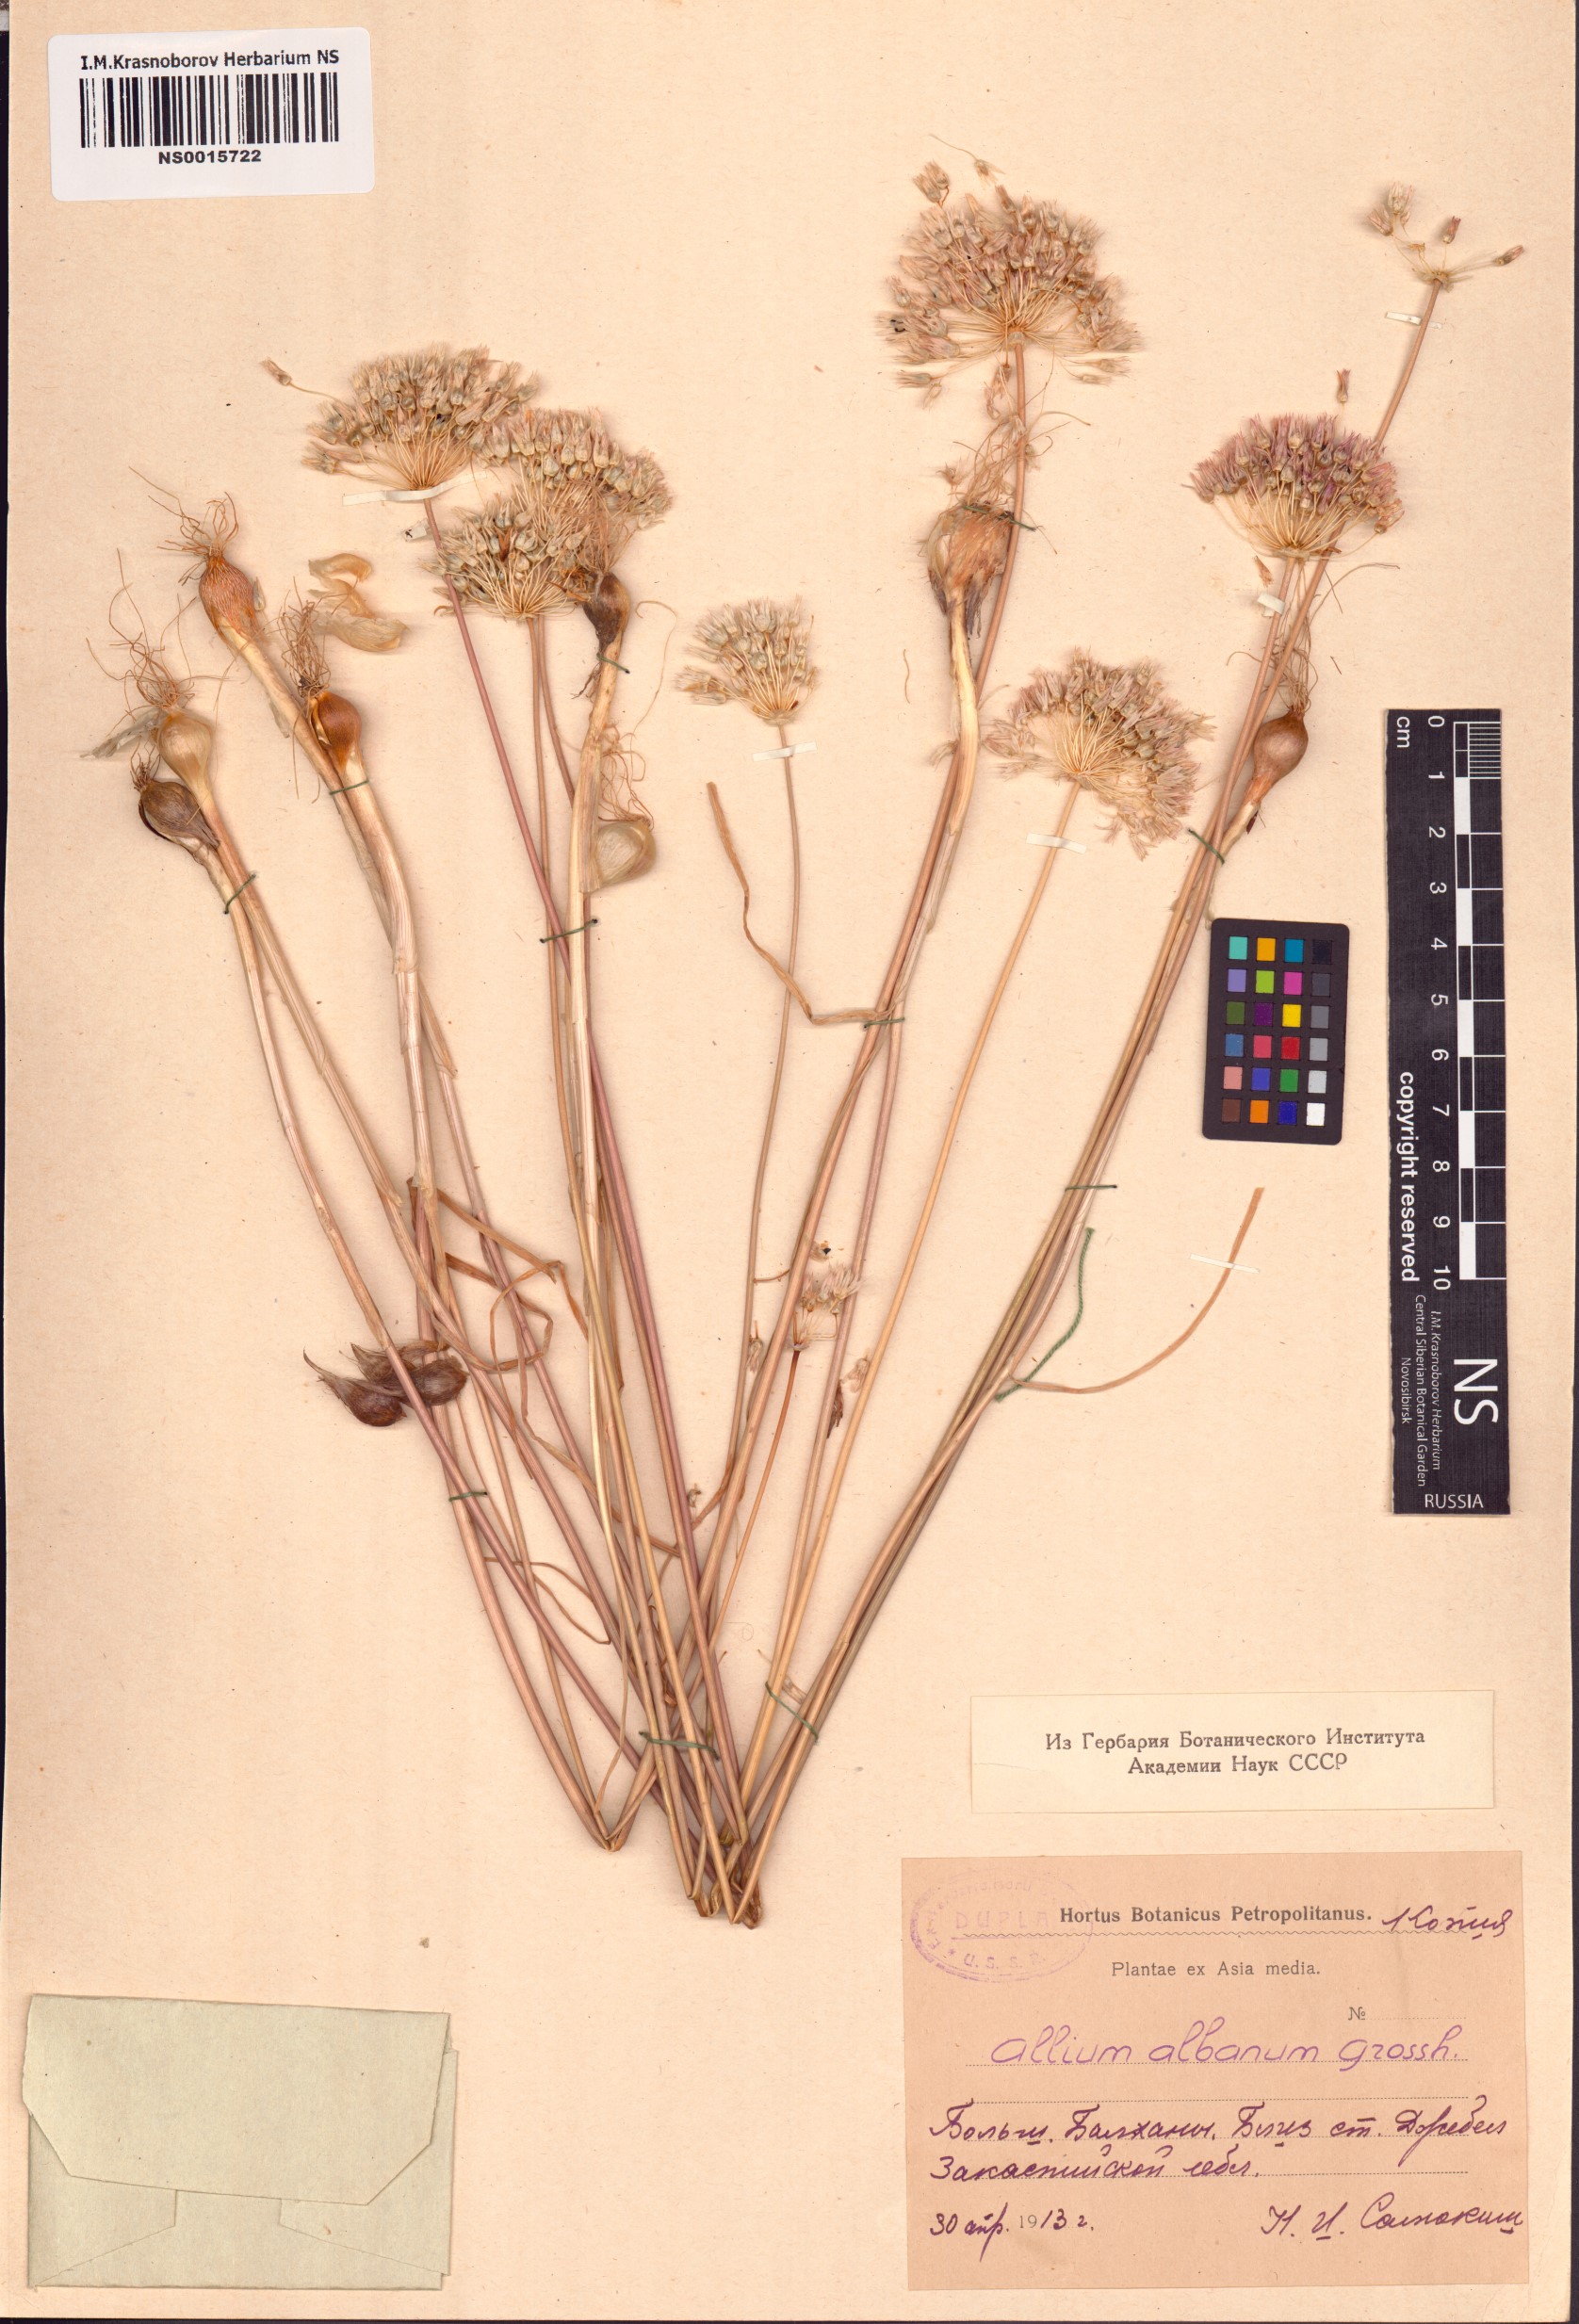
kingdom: Plantae
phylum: Tracheophyta
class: Liliopsida
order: Asparagales
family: Amaryllidaceae
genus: Allium
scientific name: Allium rubellum
